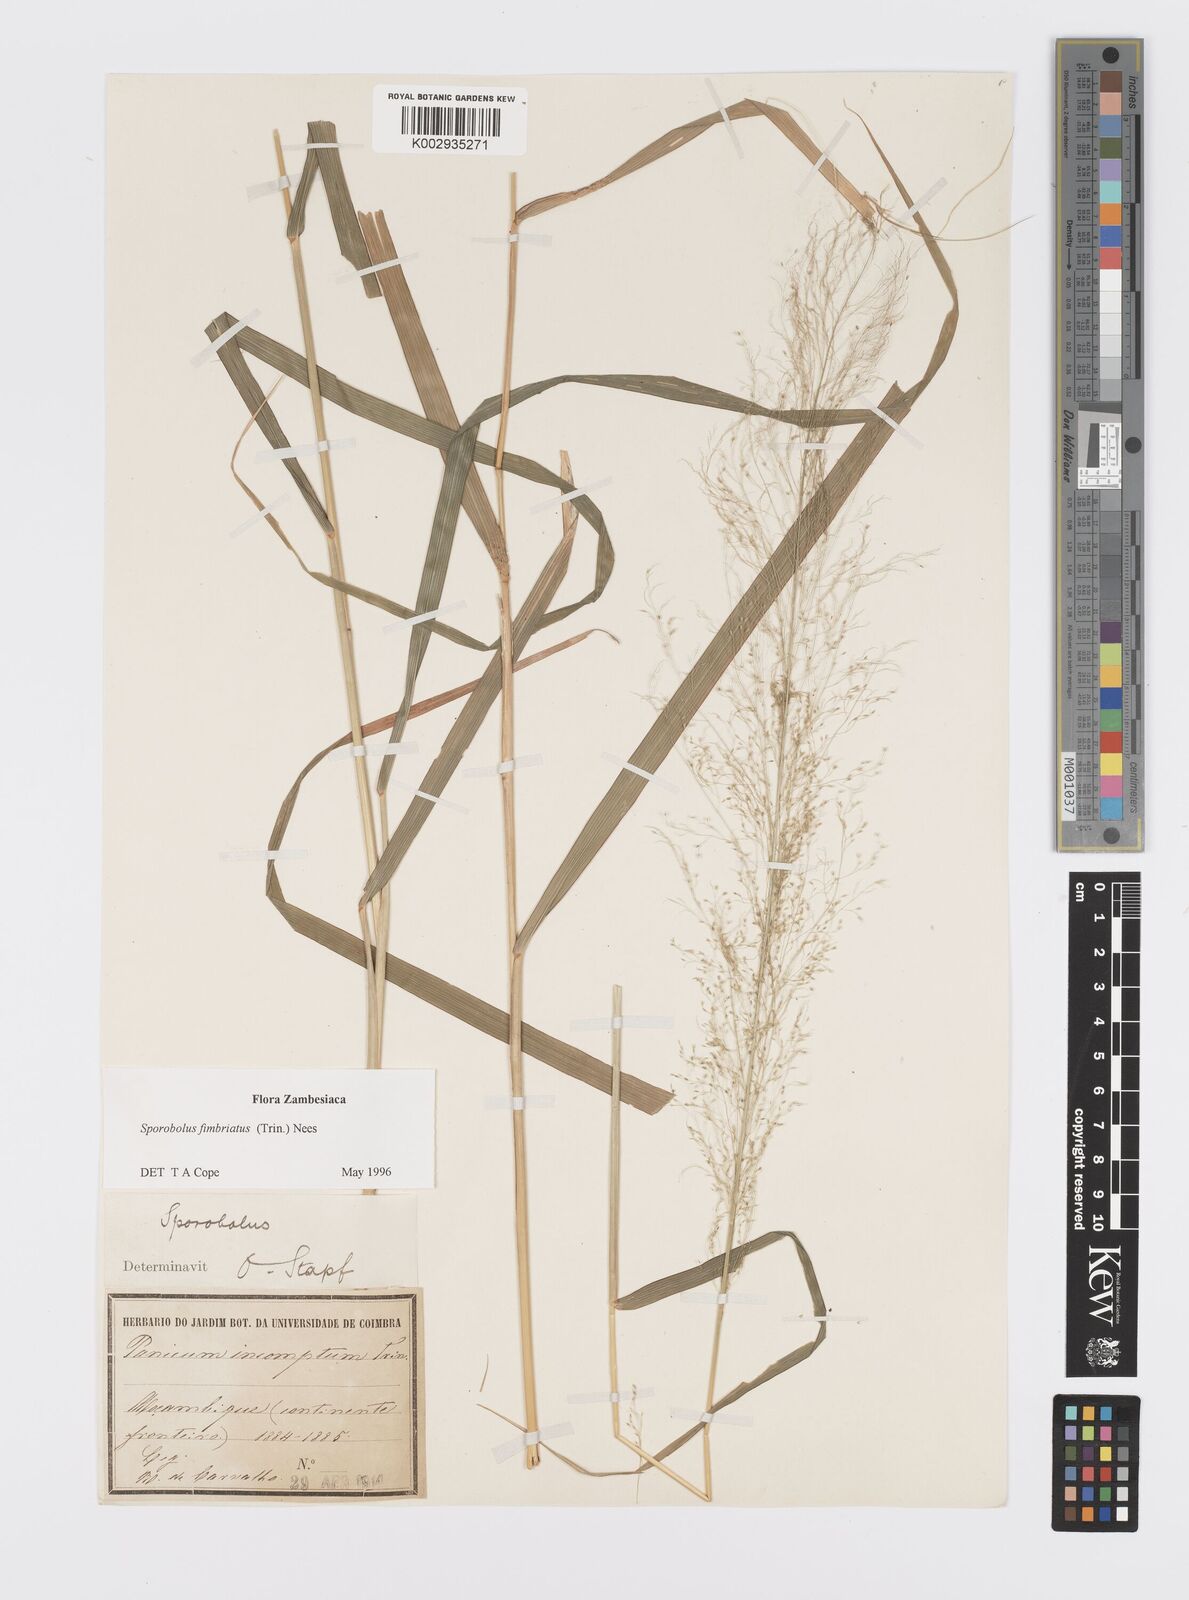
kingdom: Plantae
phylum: Tracheophyta
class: Liliopsida
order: Poales
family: Poaceae
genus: Sporobolus
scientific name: Sporobolus fimbriatus
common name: Fringed dropseed
